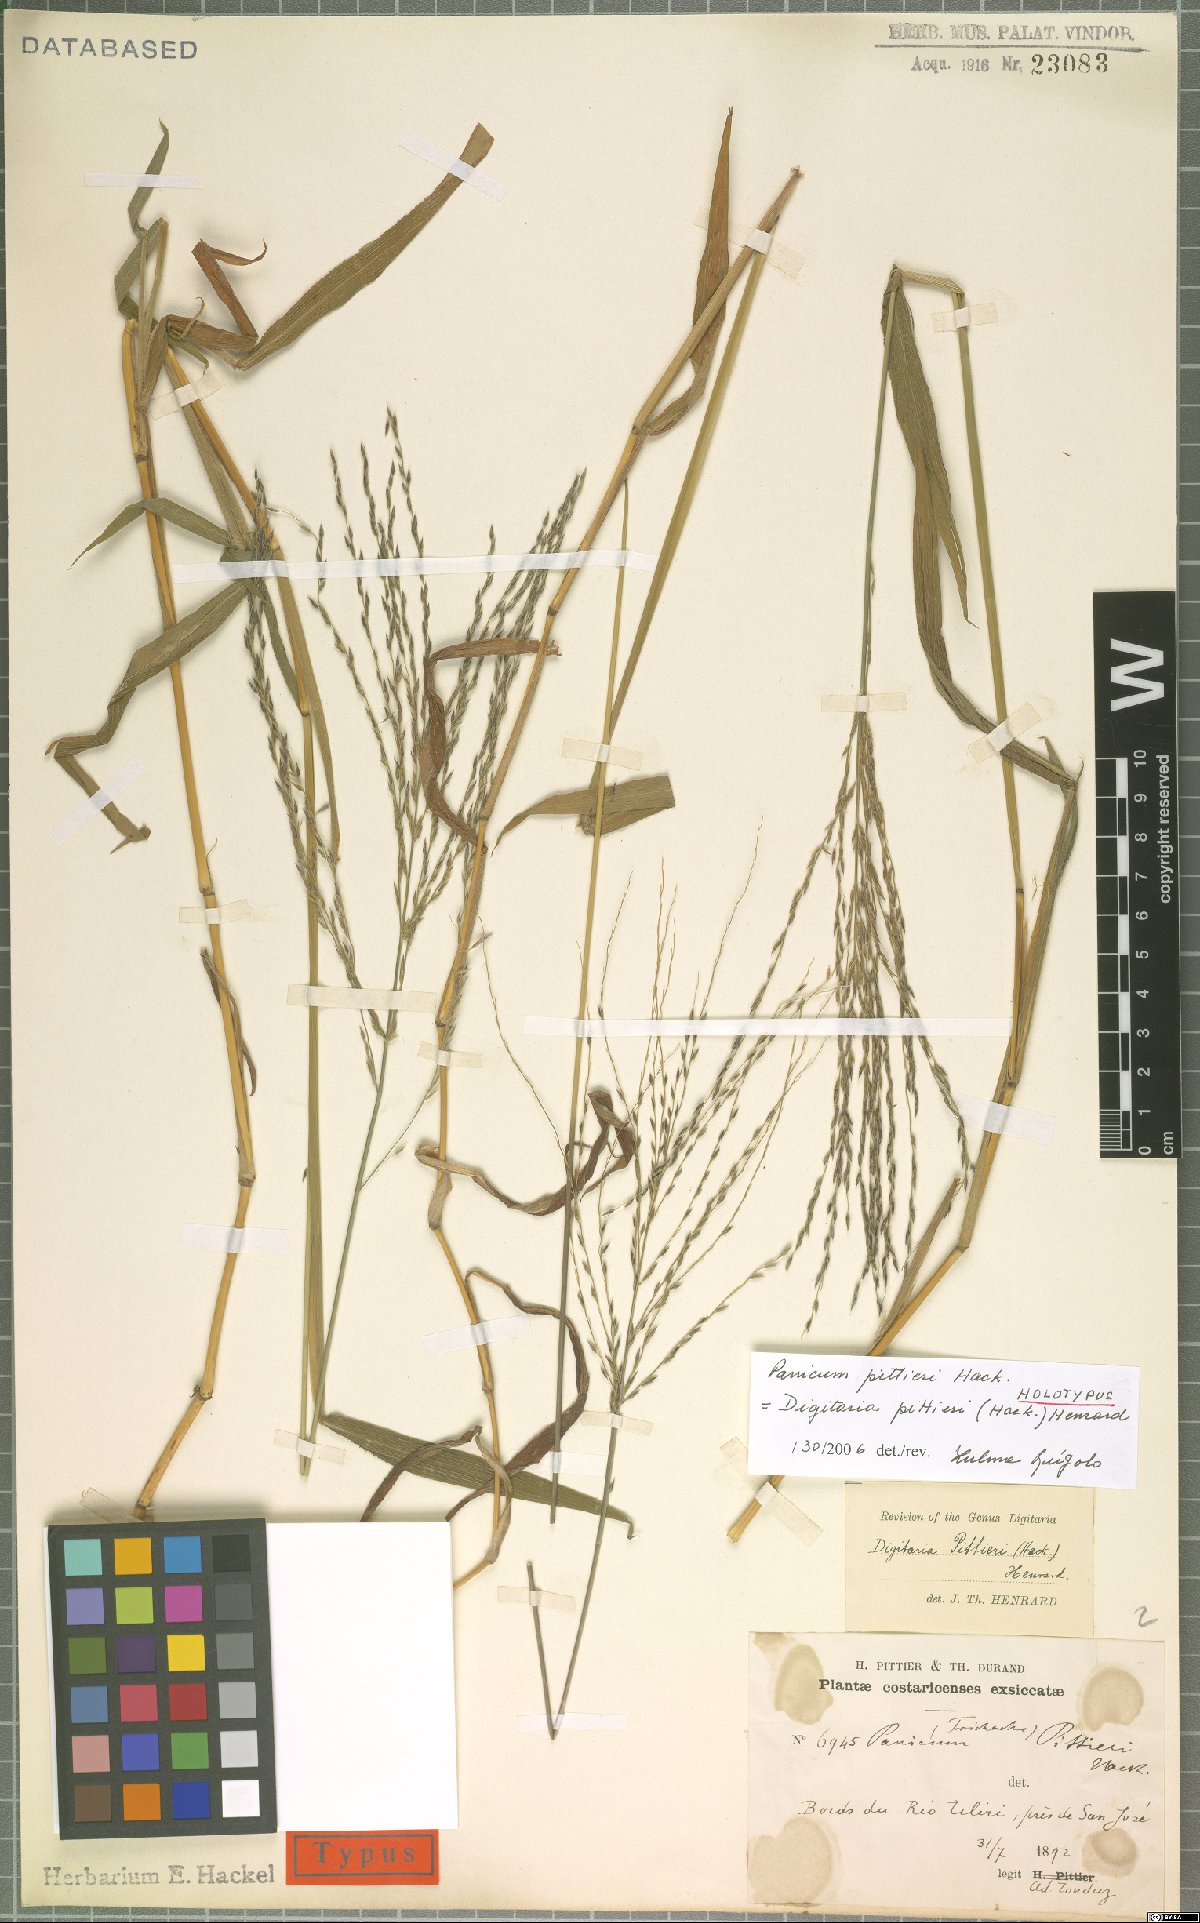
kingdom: Plantae
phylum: Tracheophyta
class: Liliopsida
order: Poales
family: Poaceae
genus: Digitaria
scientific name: Digitaria pittieri
